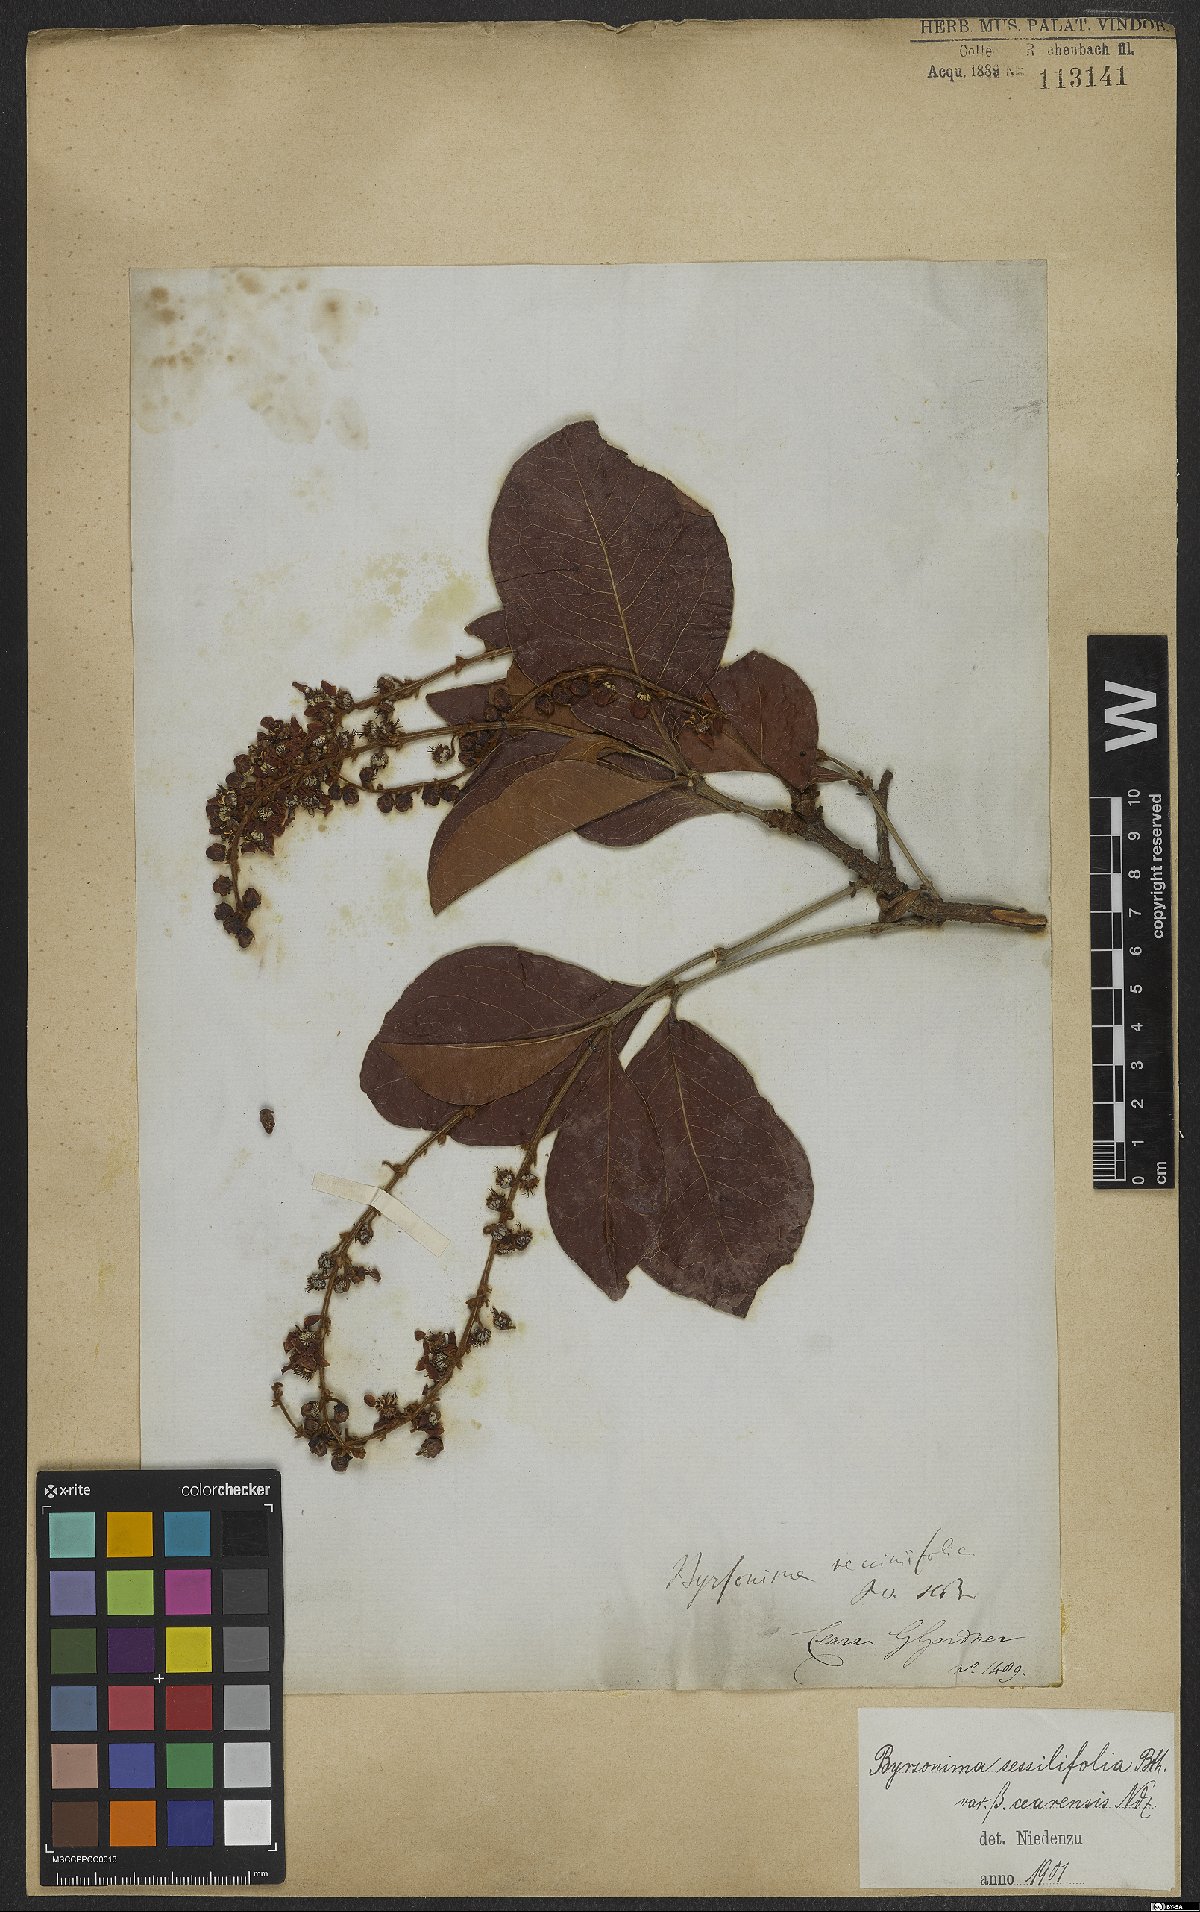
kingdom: Plantae
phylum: Tracheophyta
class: Magnoliopsida
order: Malpighiales
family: Malpighiaceae
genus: Byrsonima
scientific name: Byrsonima vacciniifolia
